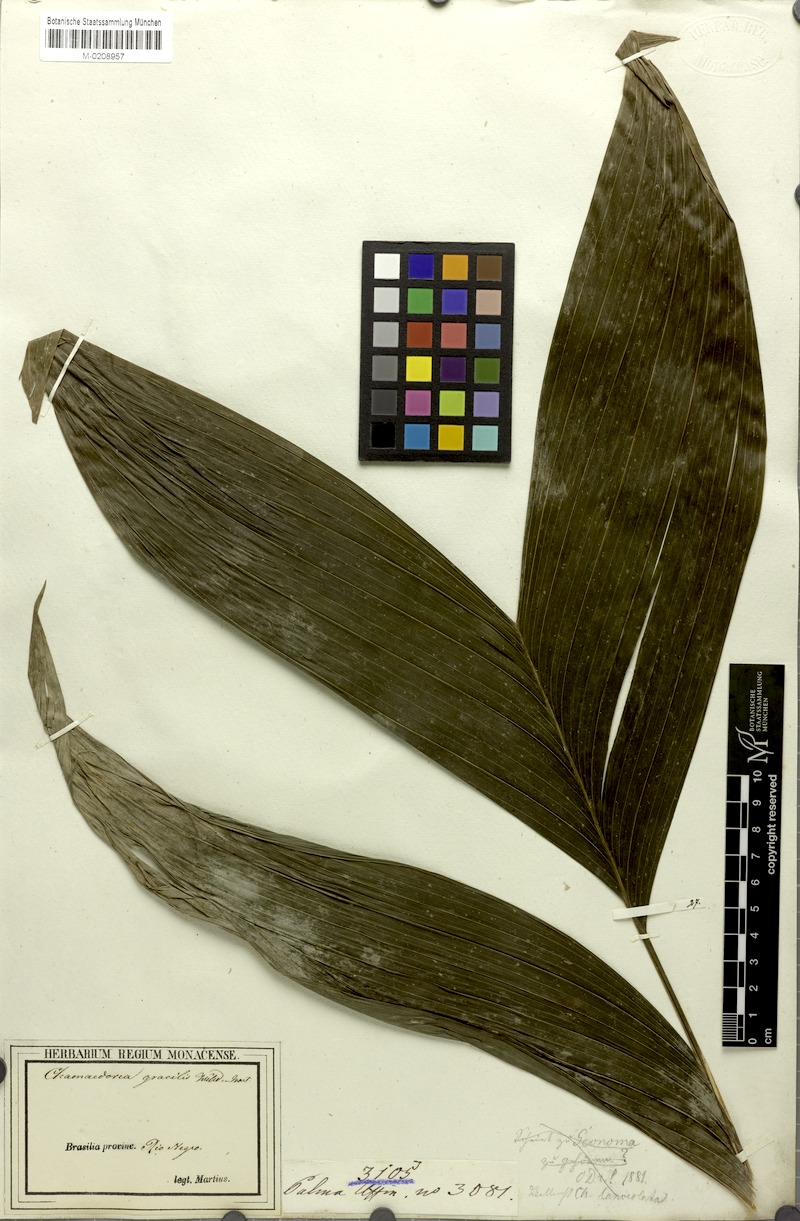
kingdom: Plantae
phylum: Tracheophyta
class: Liliopsida
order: Arecales
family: Arecaceae
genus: Chamaedorea
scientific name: Chamaedorea pinnatifrons
